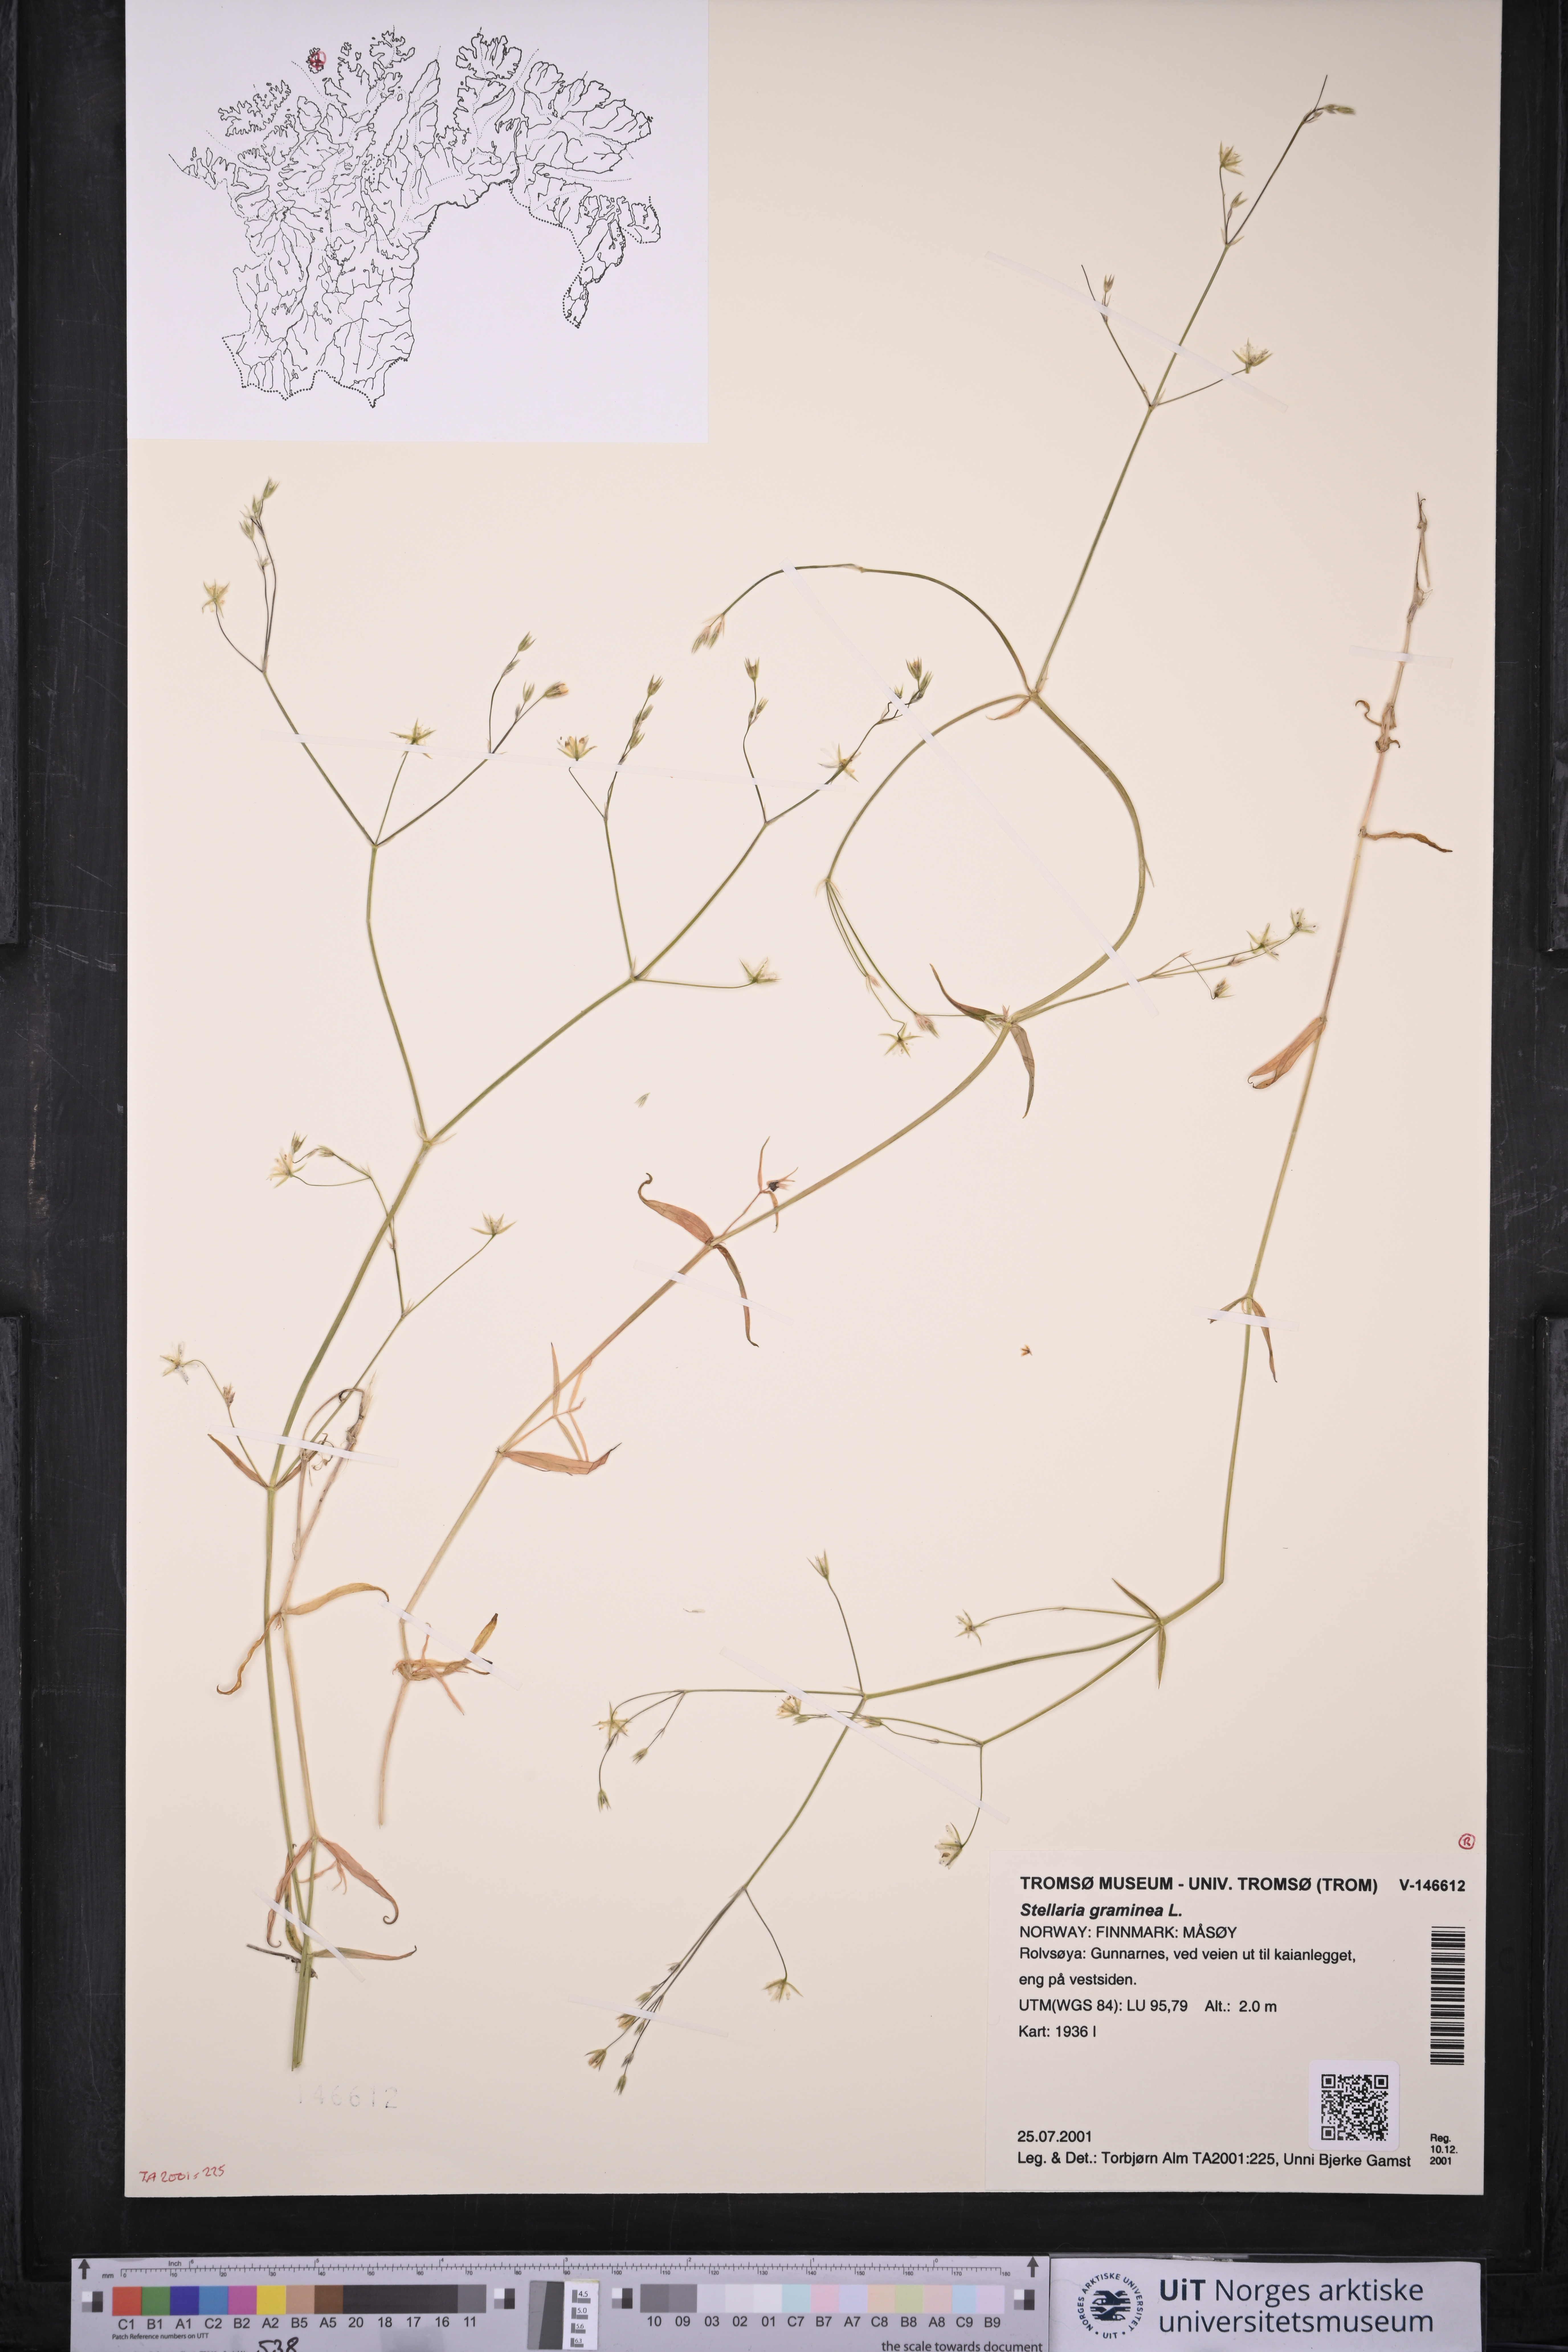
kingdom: Plantae
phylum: Tracheophyta
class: Magnoliopsida
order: Caryophyllales
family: Caryophyllaceae
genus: Stellaria
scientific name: Stellaria graminea
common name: Grass-like starwort
